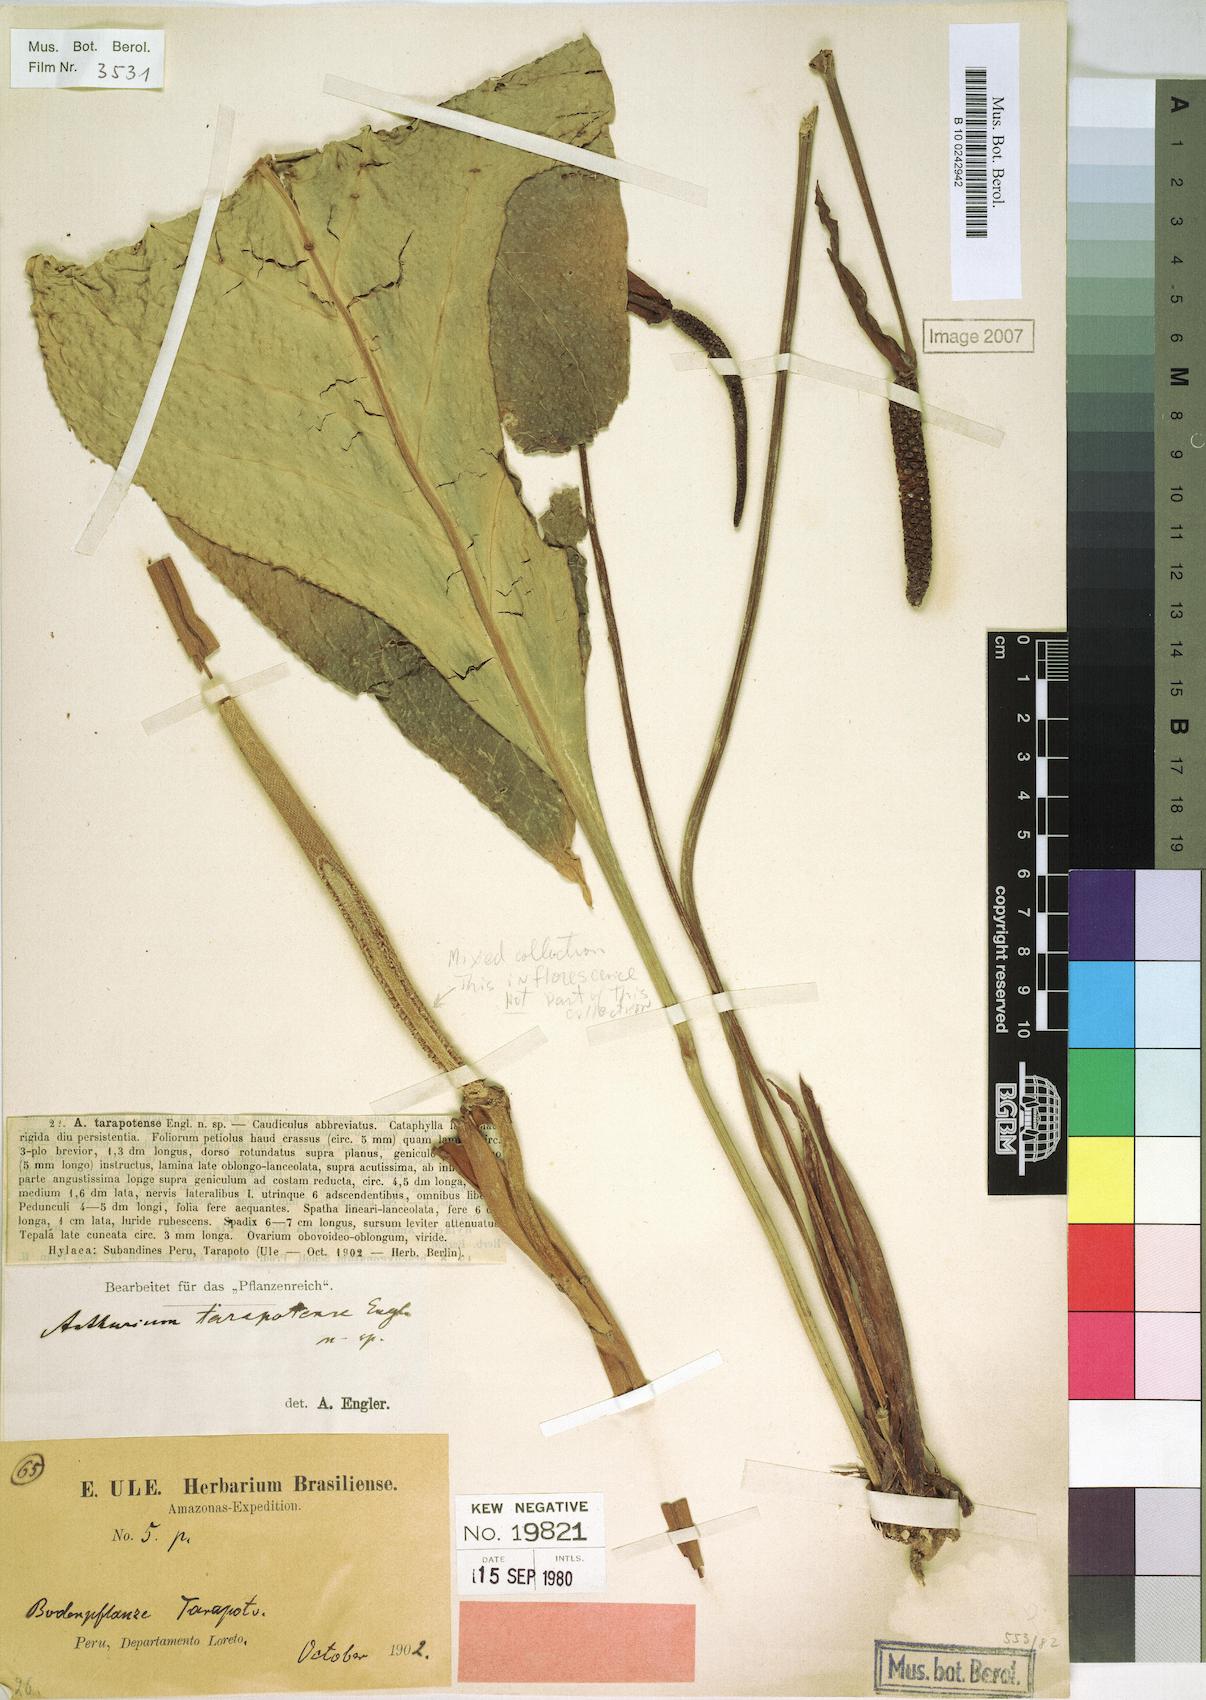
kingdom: Plantae
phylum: Tracheophyta
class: Liliopsida
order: Alismatales
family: Araceae
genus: Anthurium
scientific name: Anthurium tarapotense
